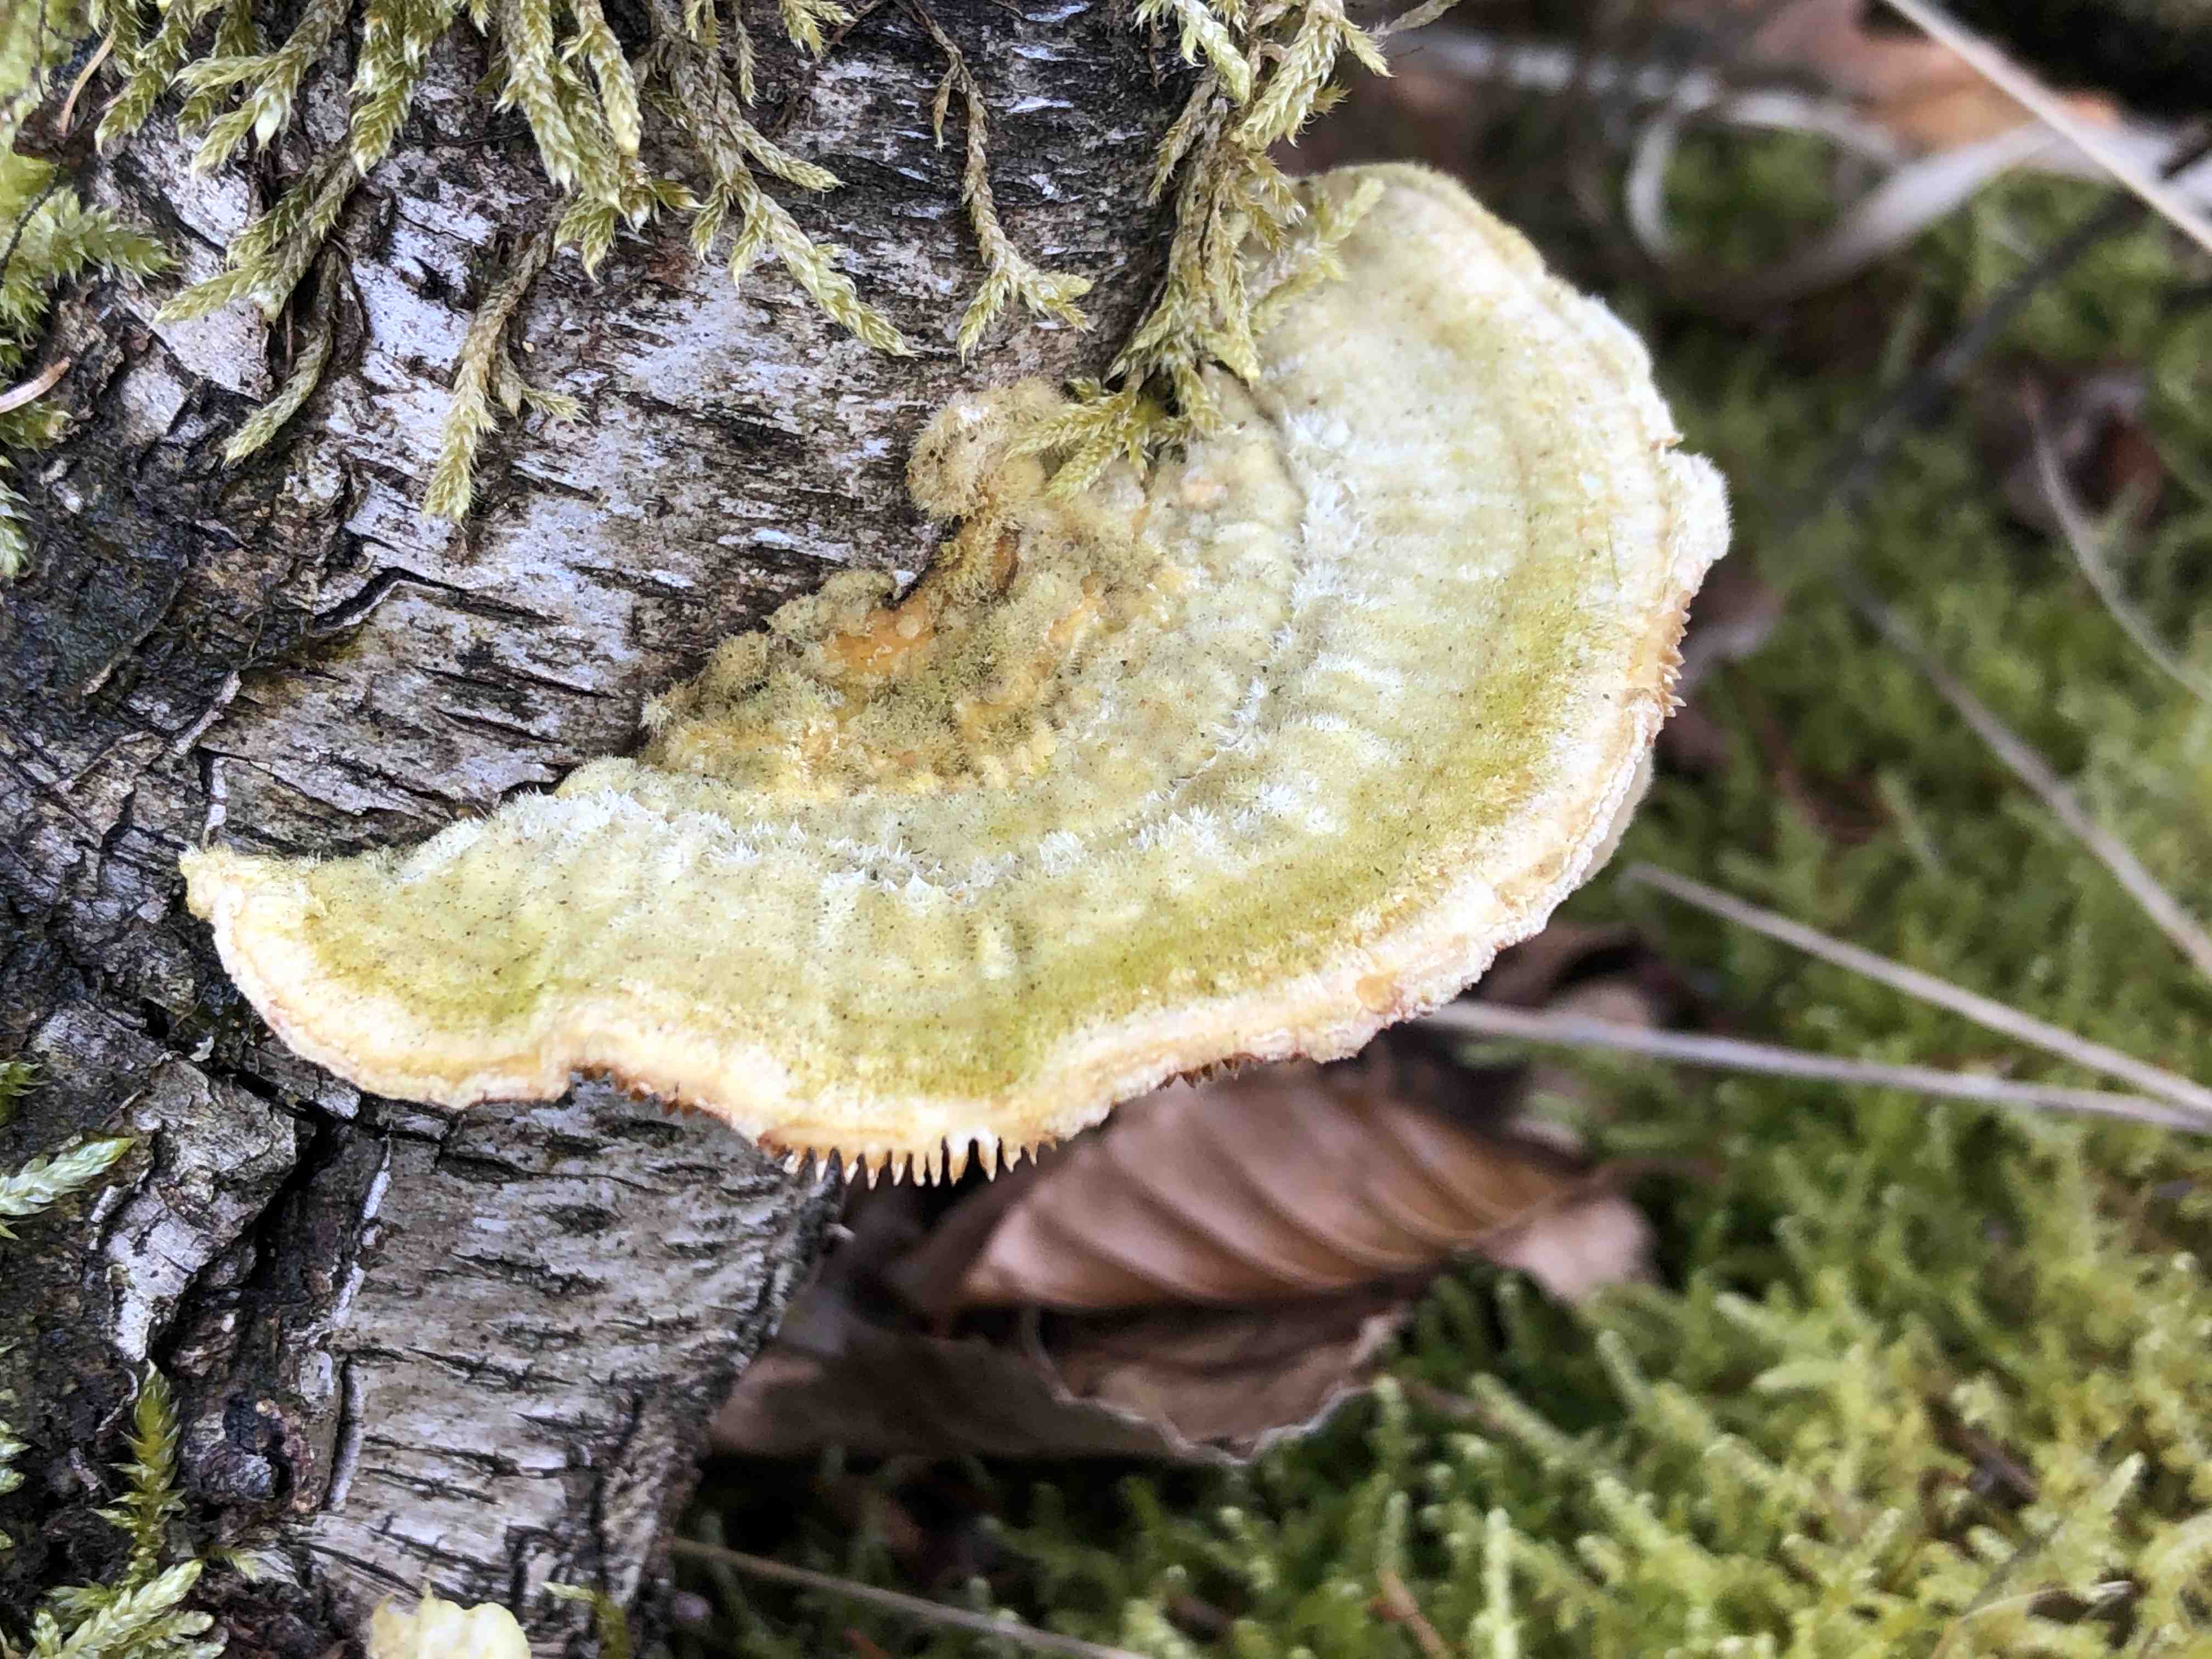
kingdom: Fungi
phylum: Basidiomycota
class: Agaricomycetes
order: Polyporales
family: Polyporaceae
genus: Lenzites
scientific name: Lenzites betulinus
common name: birke-læderporesvamp
